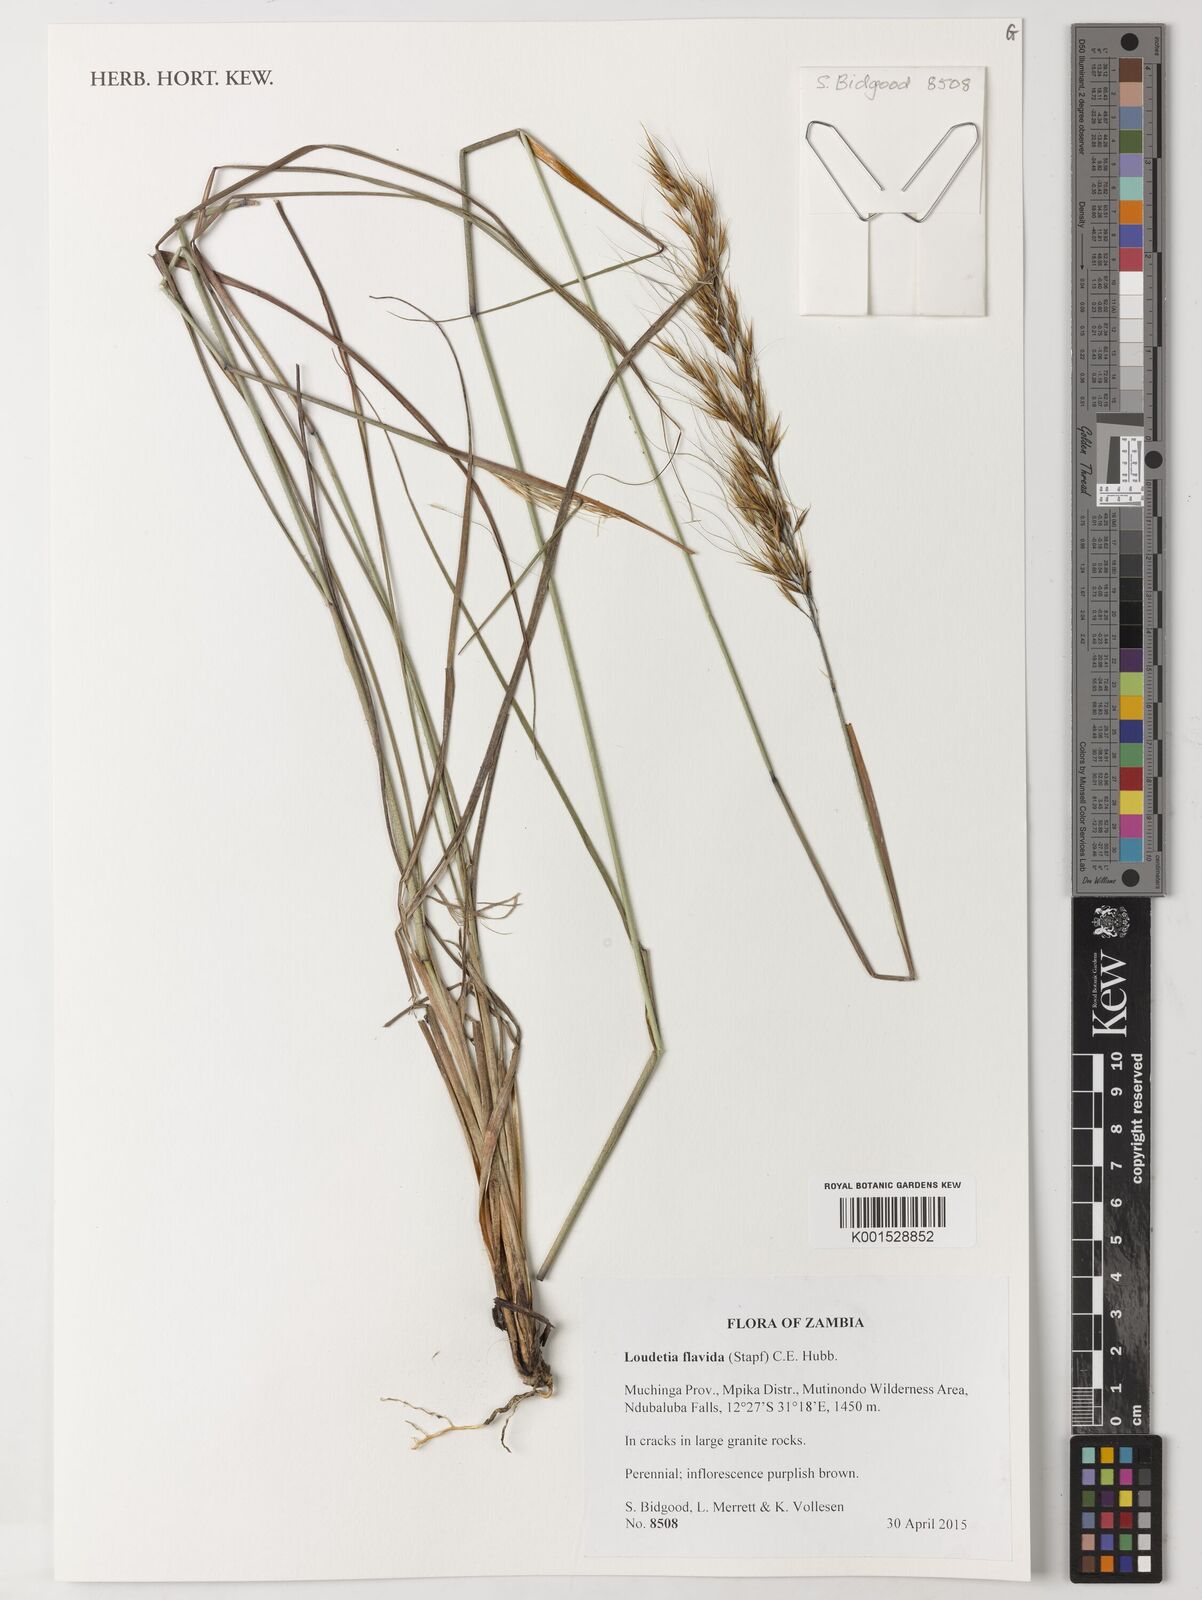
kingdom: Plantae
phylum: Tracheophyta
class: Liliopsida
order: Poales
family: Poaceae
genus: Loudetia
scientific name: Loudetia flavida
